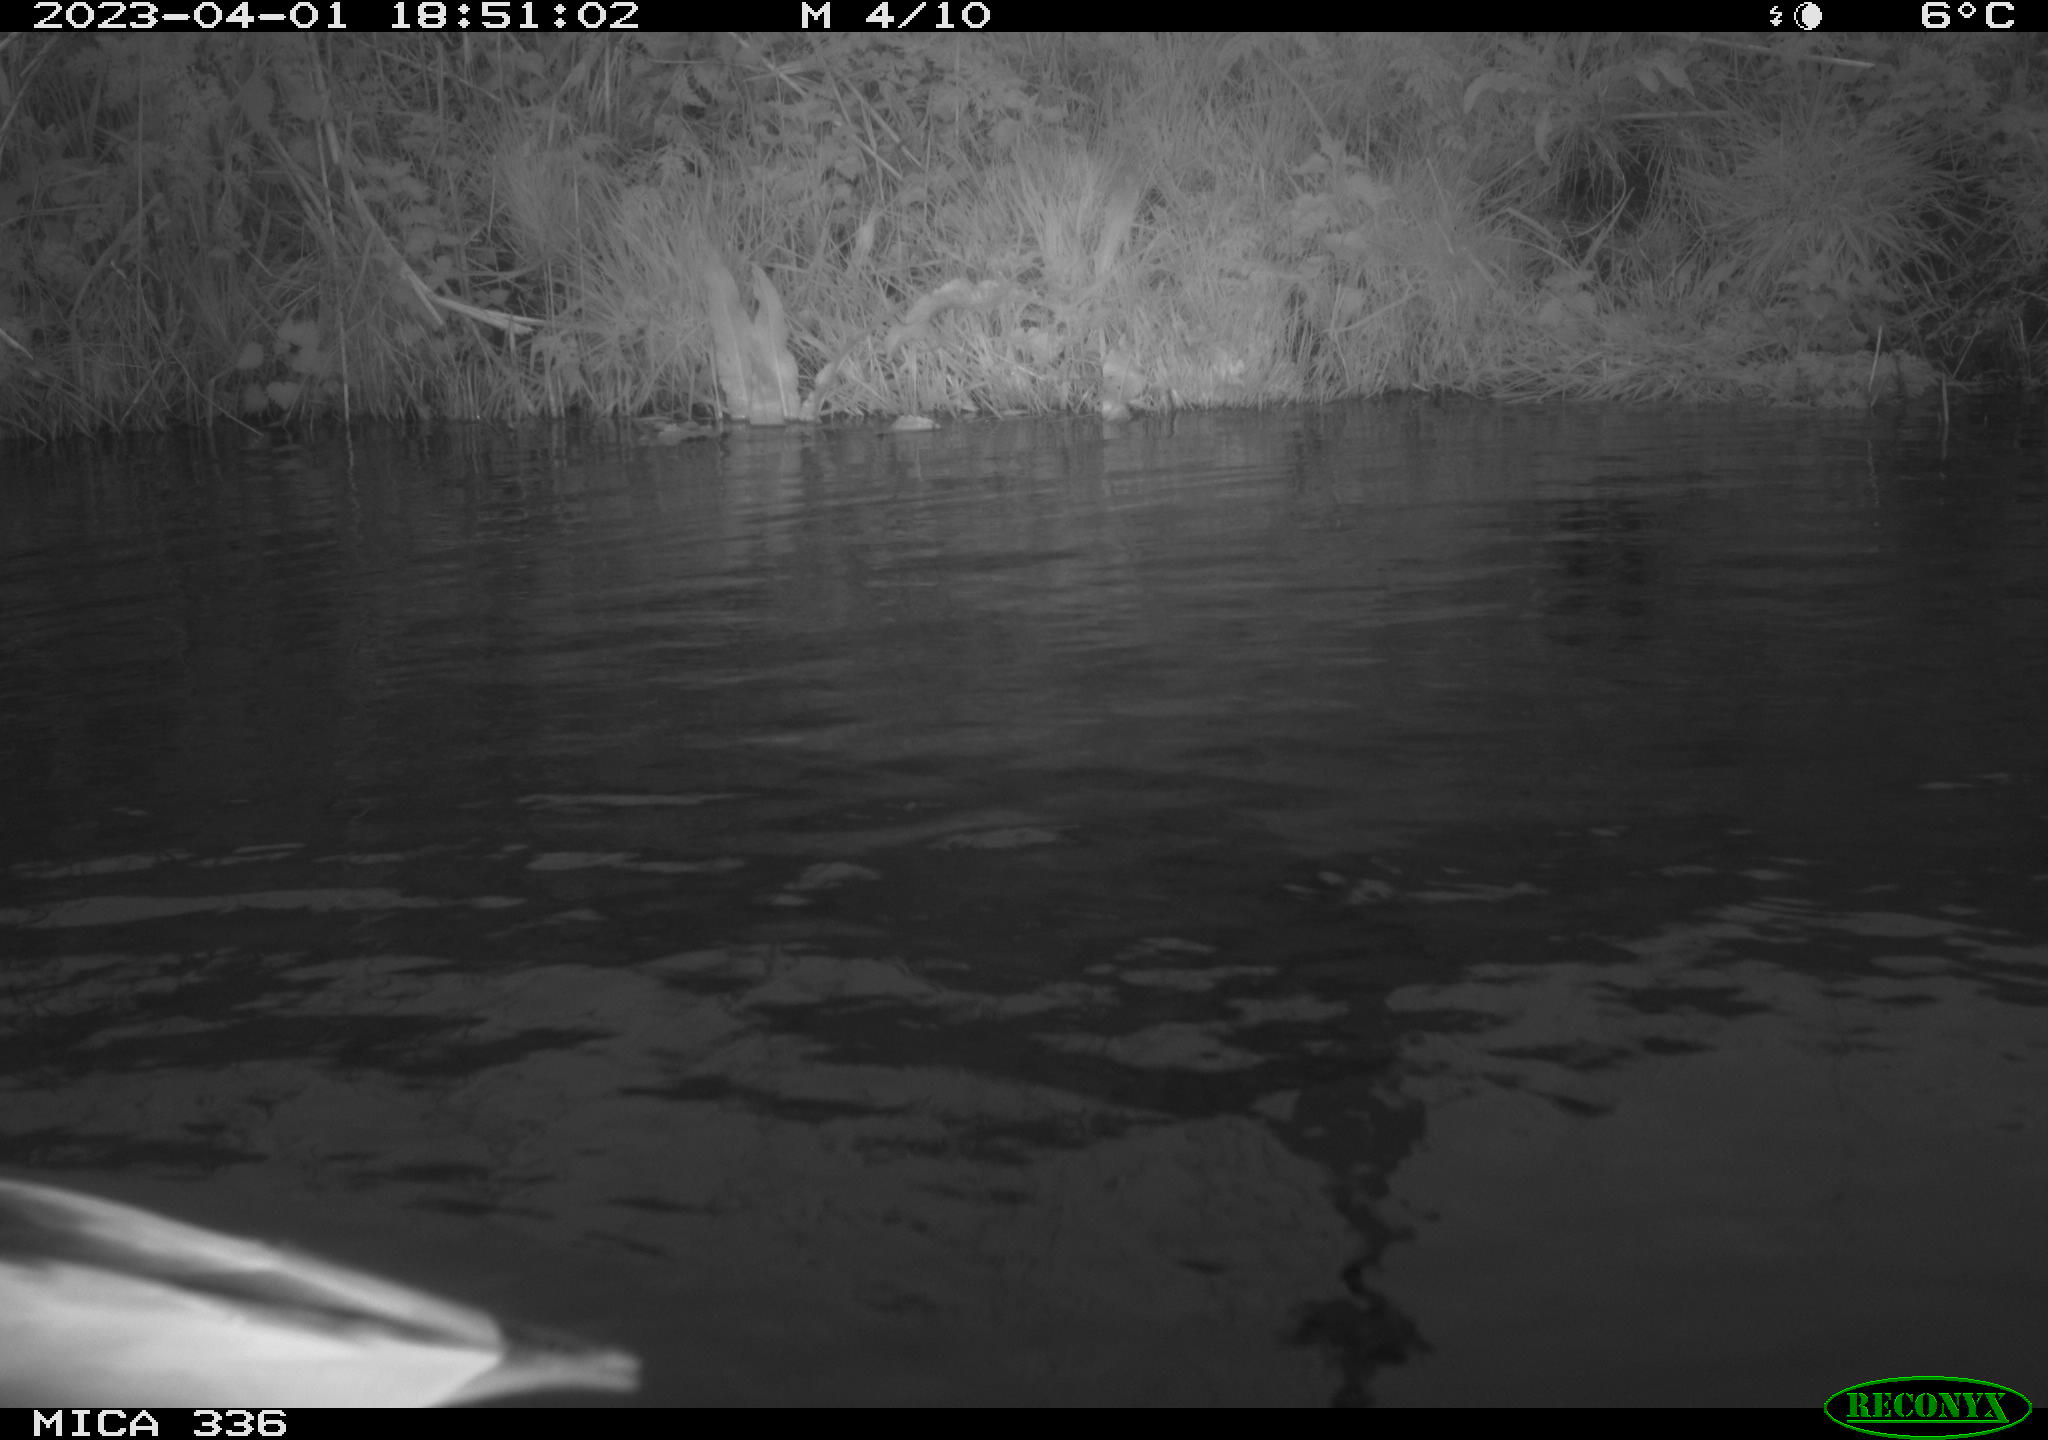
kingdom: Animalia
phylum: Chordata
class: Aves
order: Anseriformes
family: Anatidae
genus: Anas
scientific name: Anas
